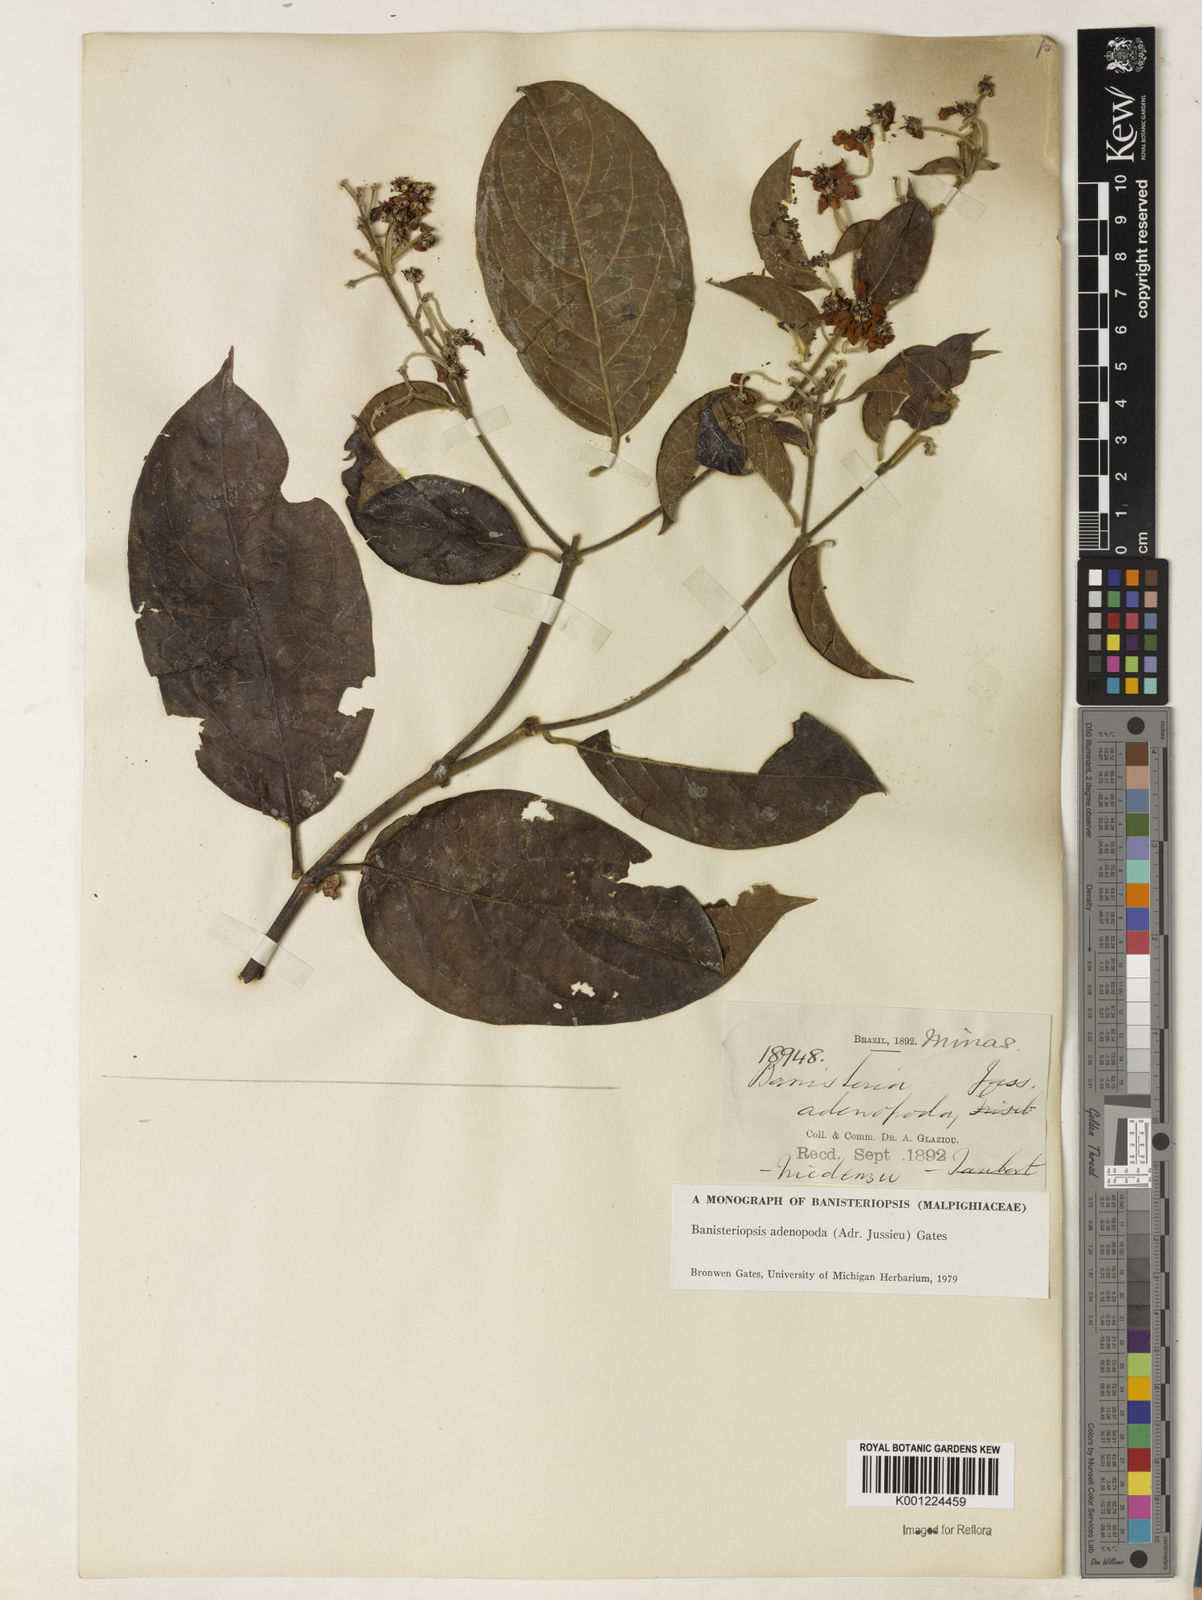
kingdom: Plantae
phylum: Tracheophyta
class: Magnoliopsida
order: Malpighiales
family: Malpighiaceae
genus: Banisteriopsis
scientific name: Banisteriopsis adenopoda
